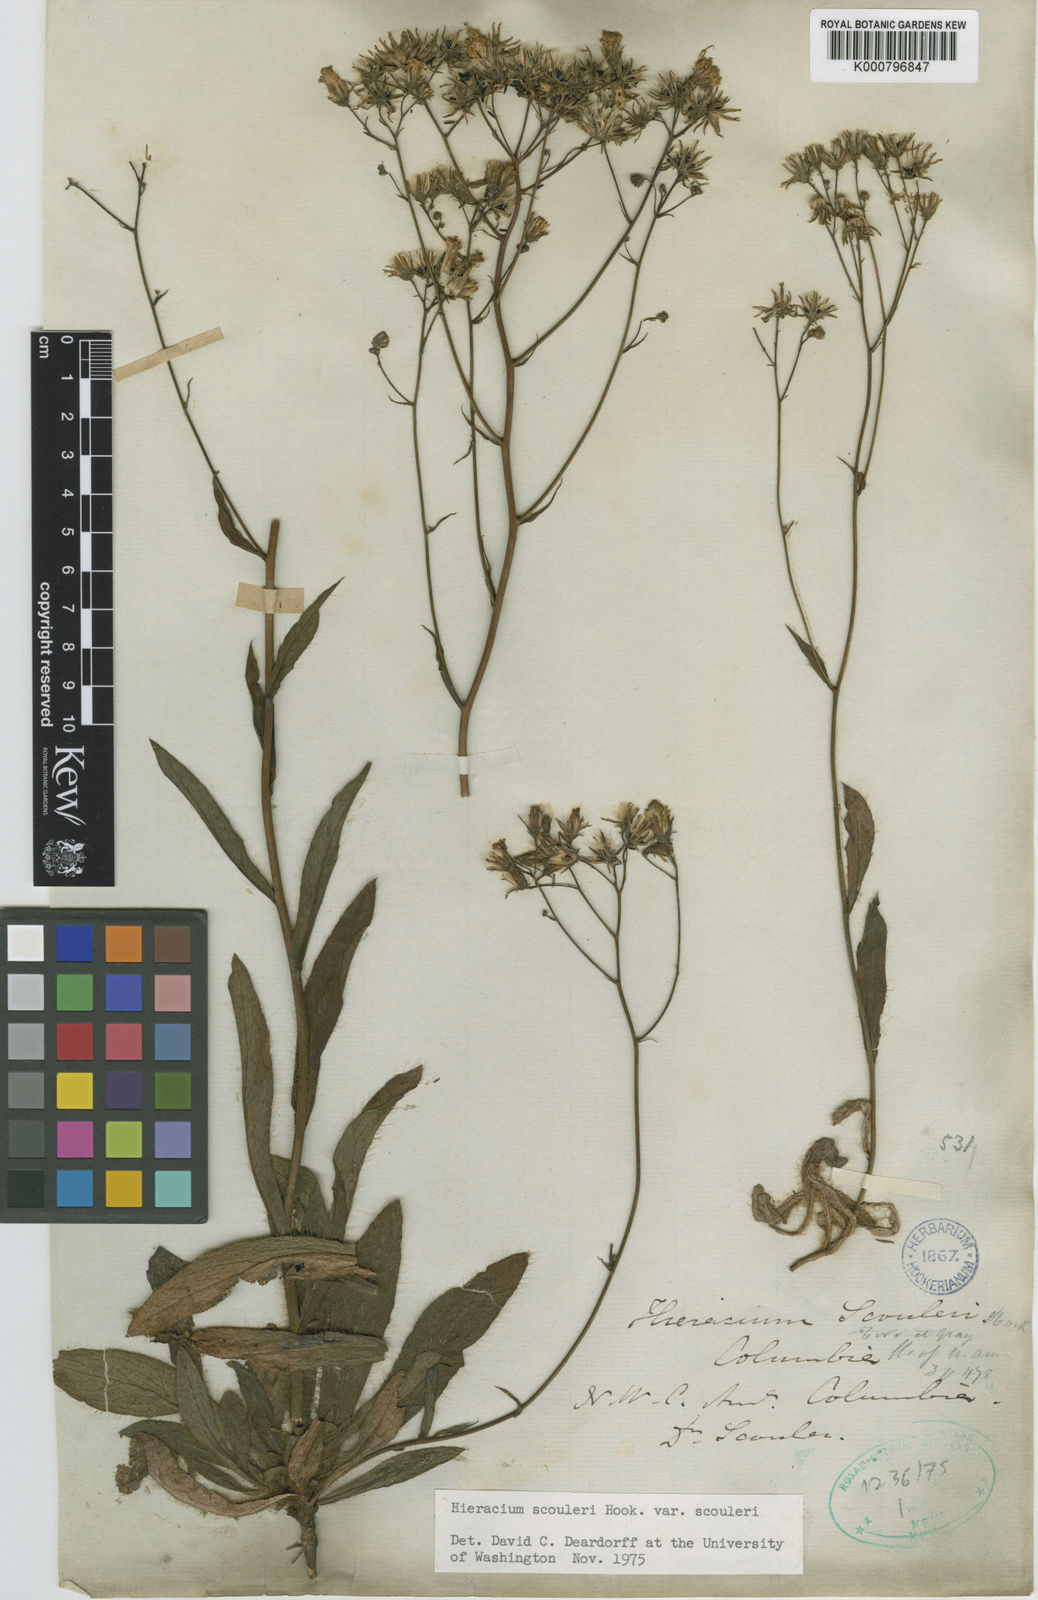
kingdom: Plantae
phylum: Tracheophyta
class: Magnoliopsida
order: Asterales
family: Asteraceae
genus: Hieracium
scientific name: Hieracium scouleri
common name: Hound's-tongue hawkweed
